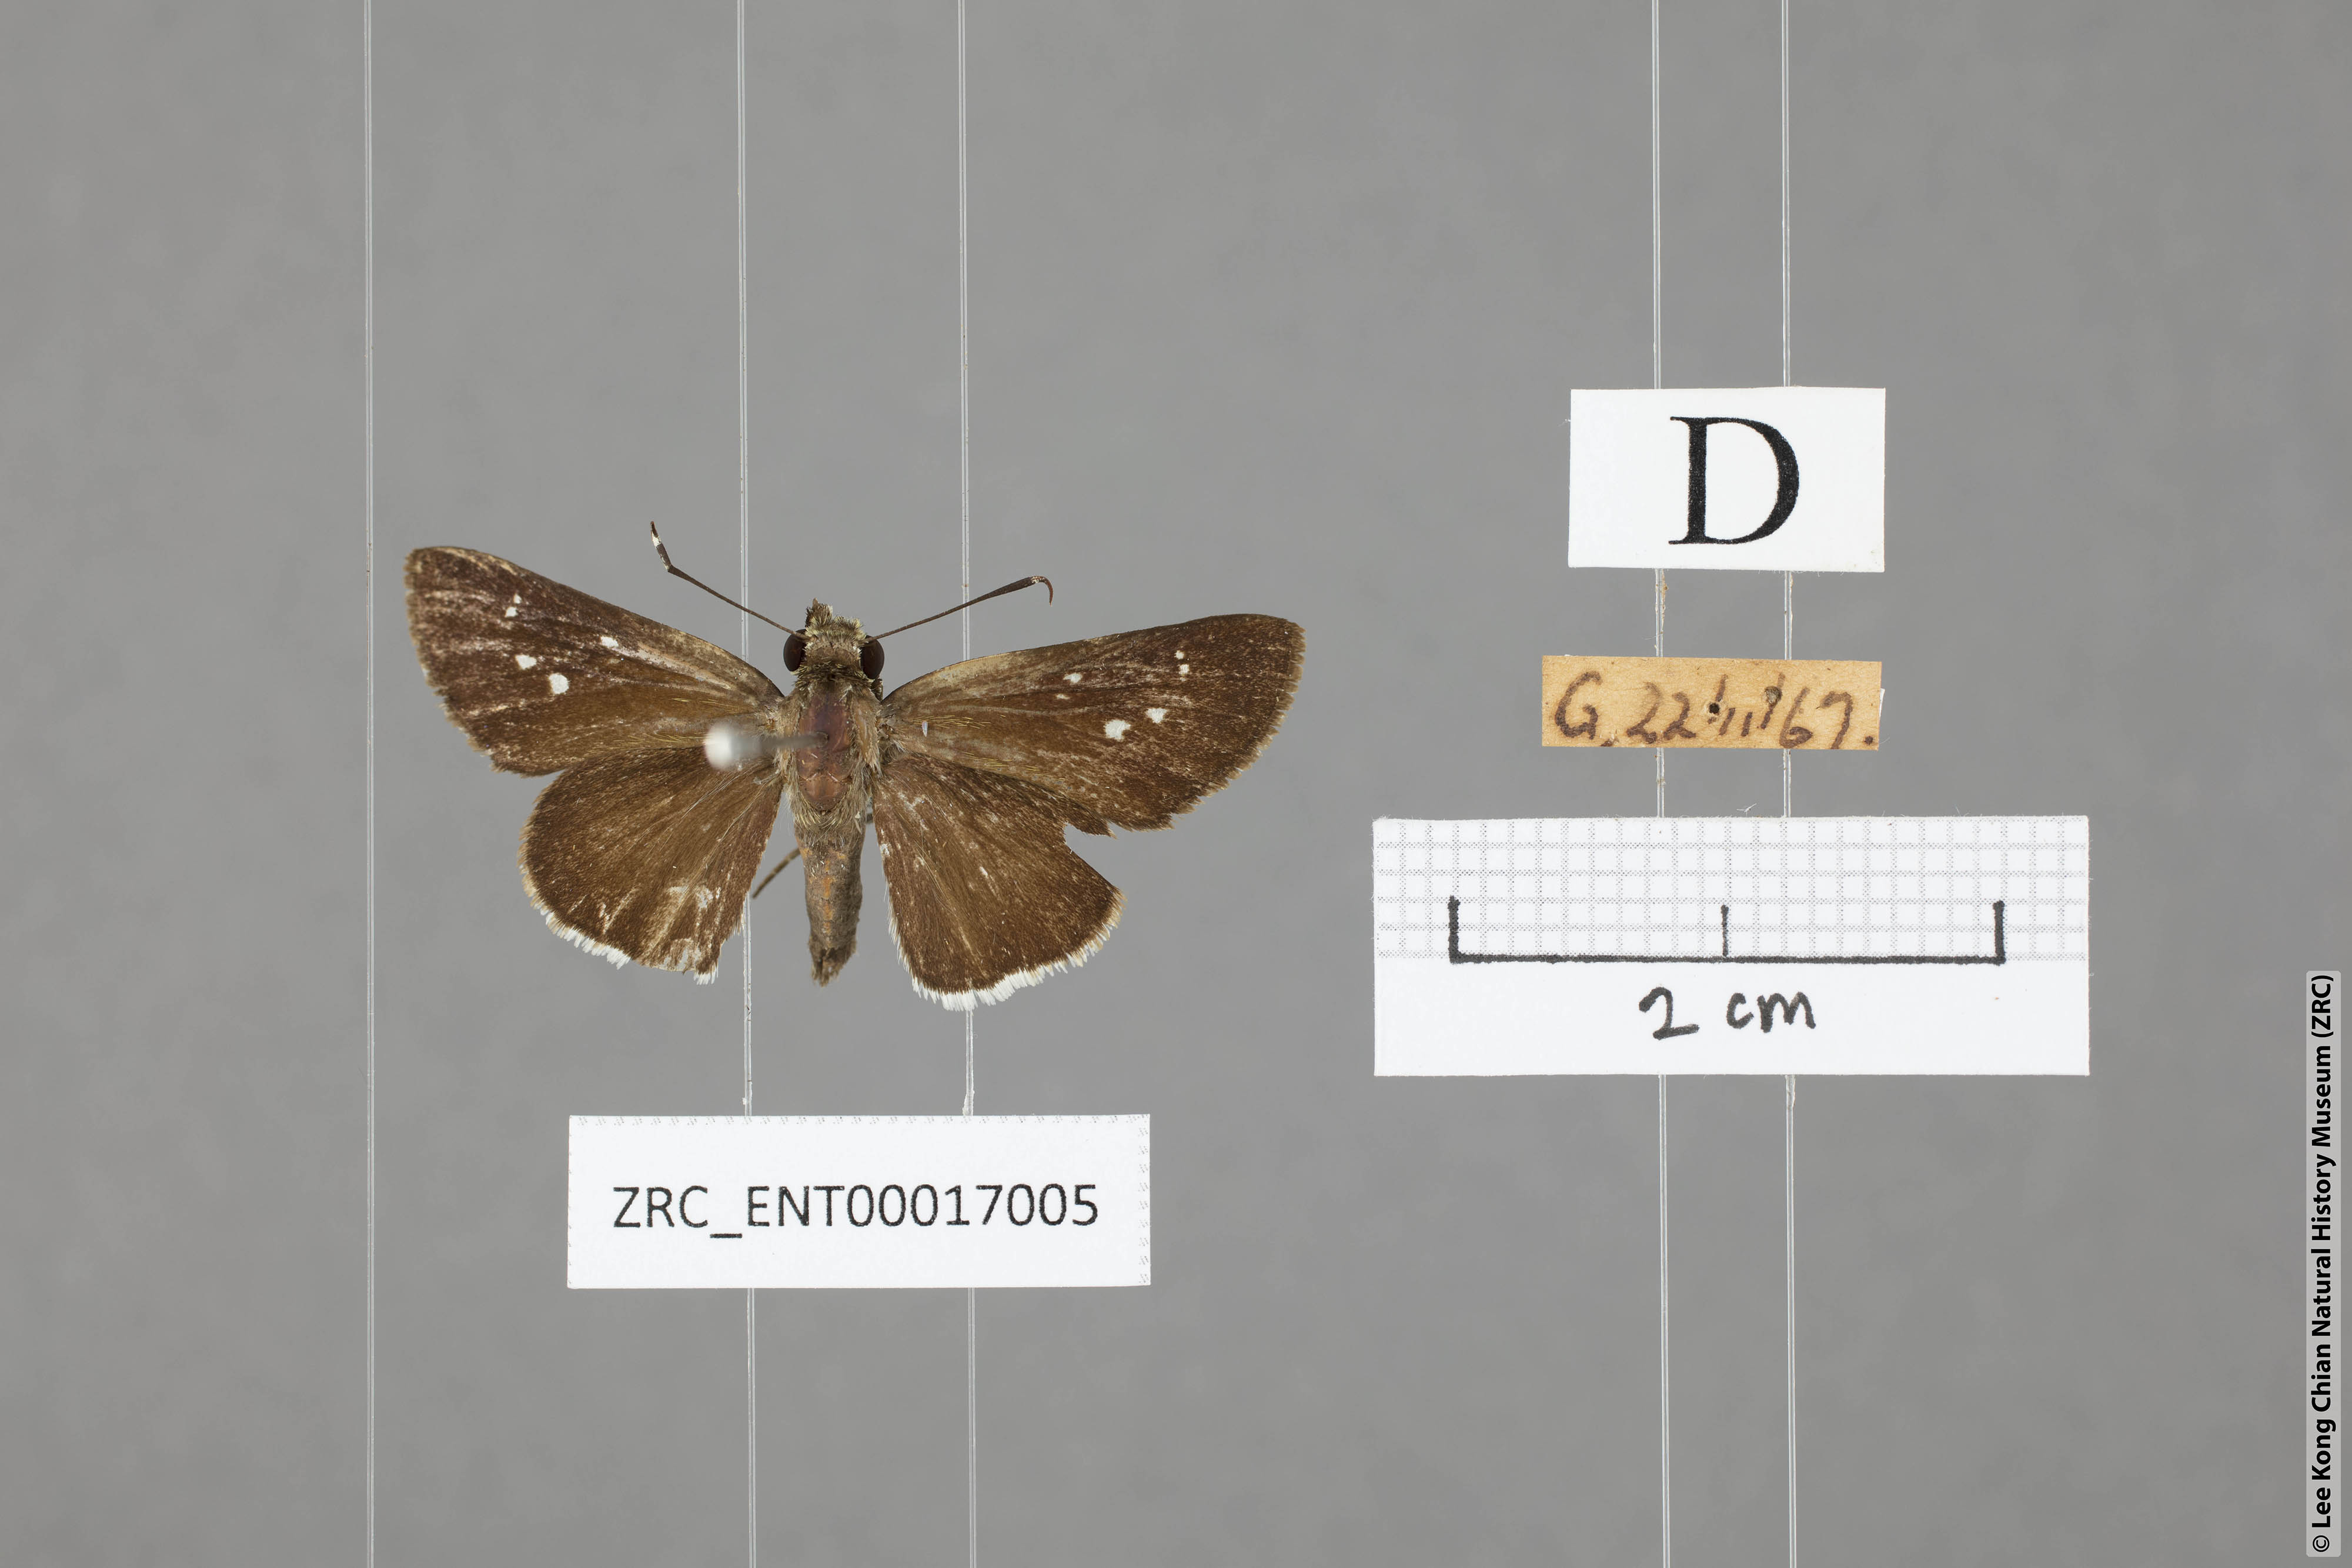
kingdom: Animalia
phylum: Arthropoda
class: Insecta
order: Lepidoptera
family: Hesperiidae
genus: Halpe
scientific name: Halpe insignis
